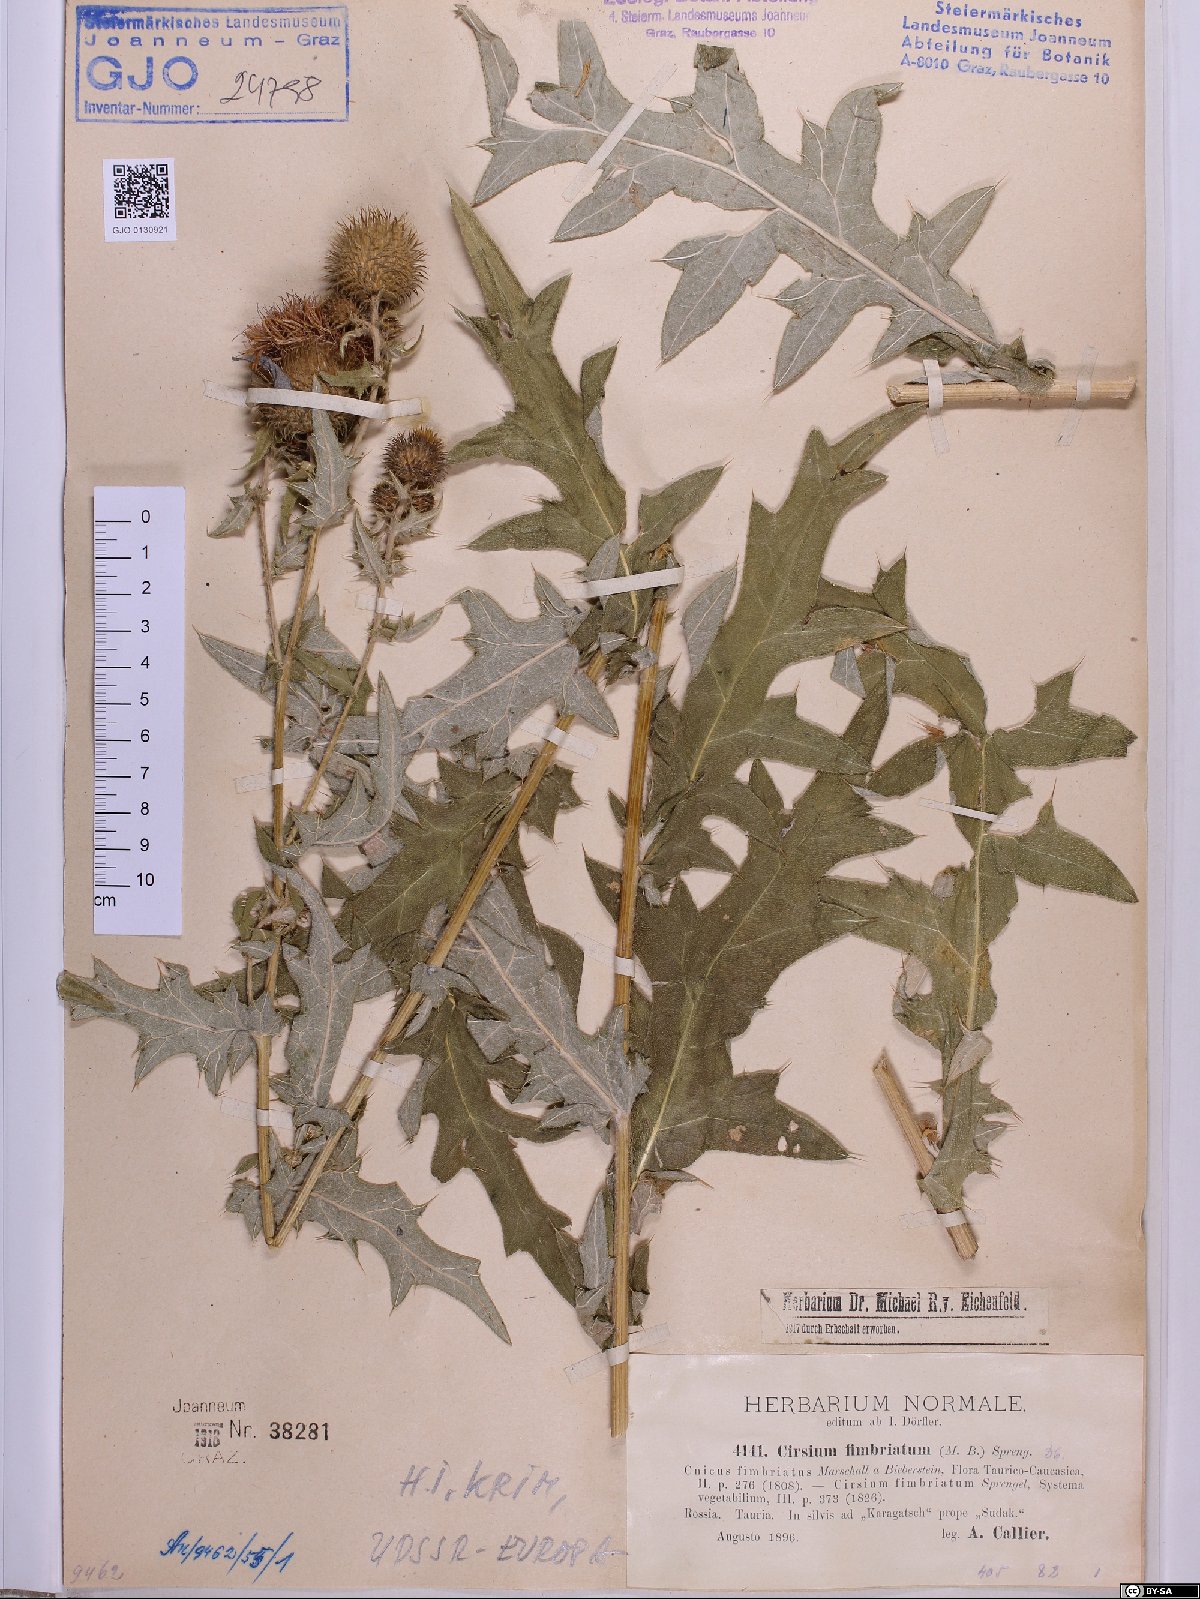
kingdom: Plantae
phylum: Tracheophyta
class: Magnoliopsida
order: Asterales
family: Asteraceae
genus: Lophiolepis
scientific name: Lophiolepis ossetica
